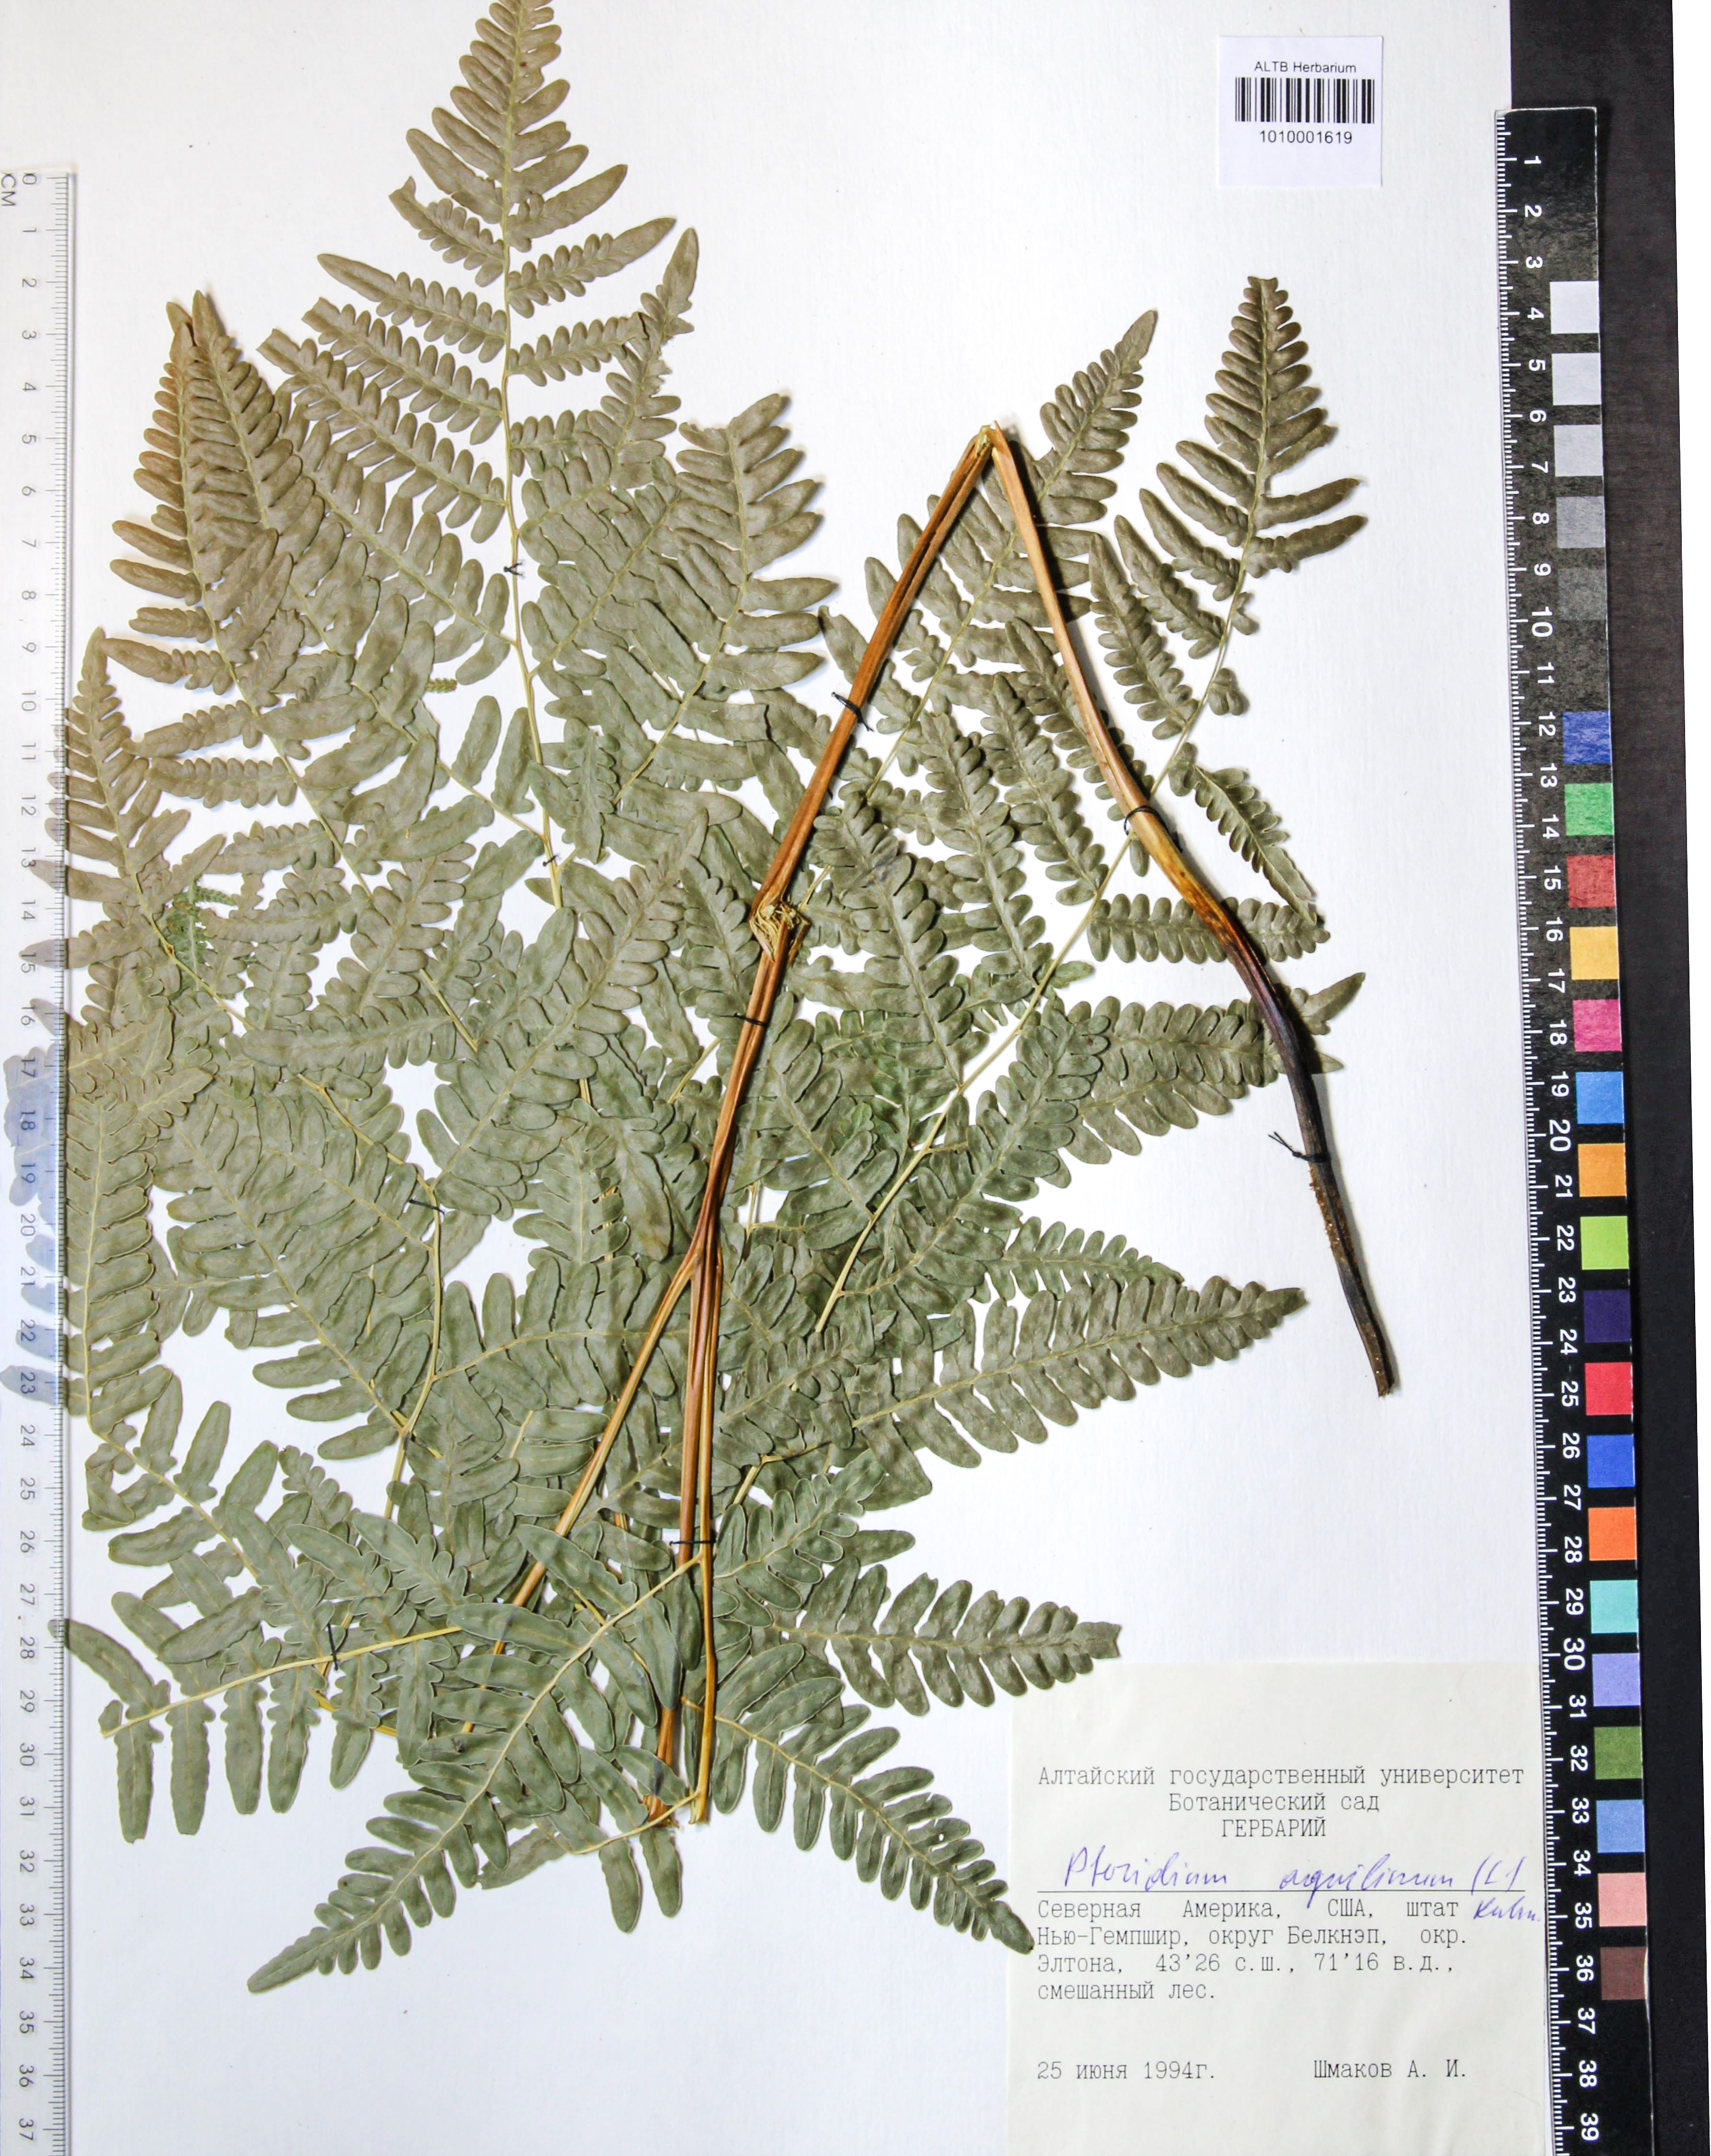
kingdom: Plantae
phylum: Tracheophyta
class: Polypodiopsida
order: Polypodiales
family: Dennstaedtiaceae
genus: Pteridium
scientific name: Pteridium aquilinum
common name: Bracken
